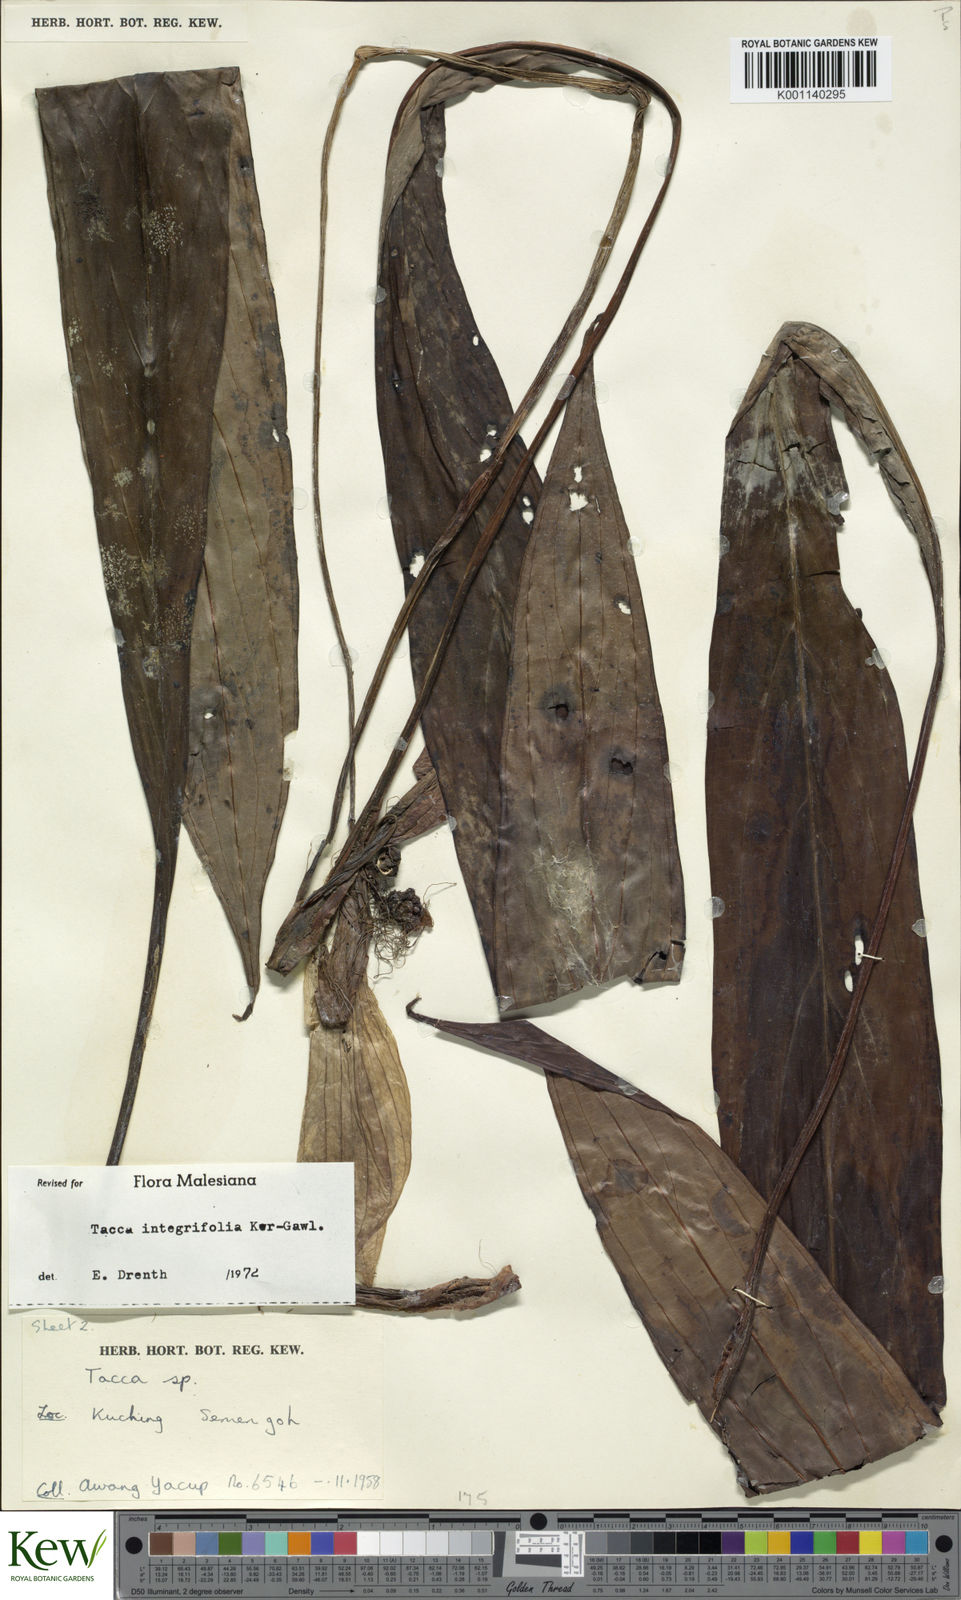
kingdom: Plantae
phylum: Tracheophyta
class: Liliopsida
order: Dioscoreales
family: Dioscoreaceae
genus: Tacca
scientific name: Tacca integrifolia
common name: Batplant
